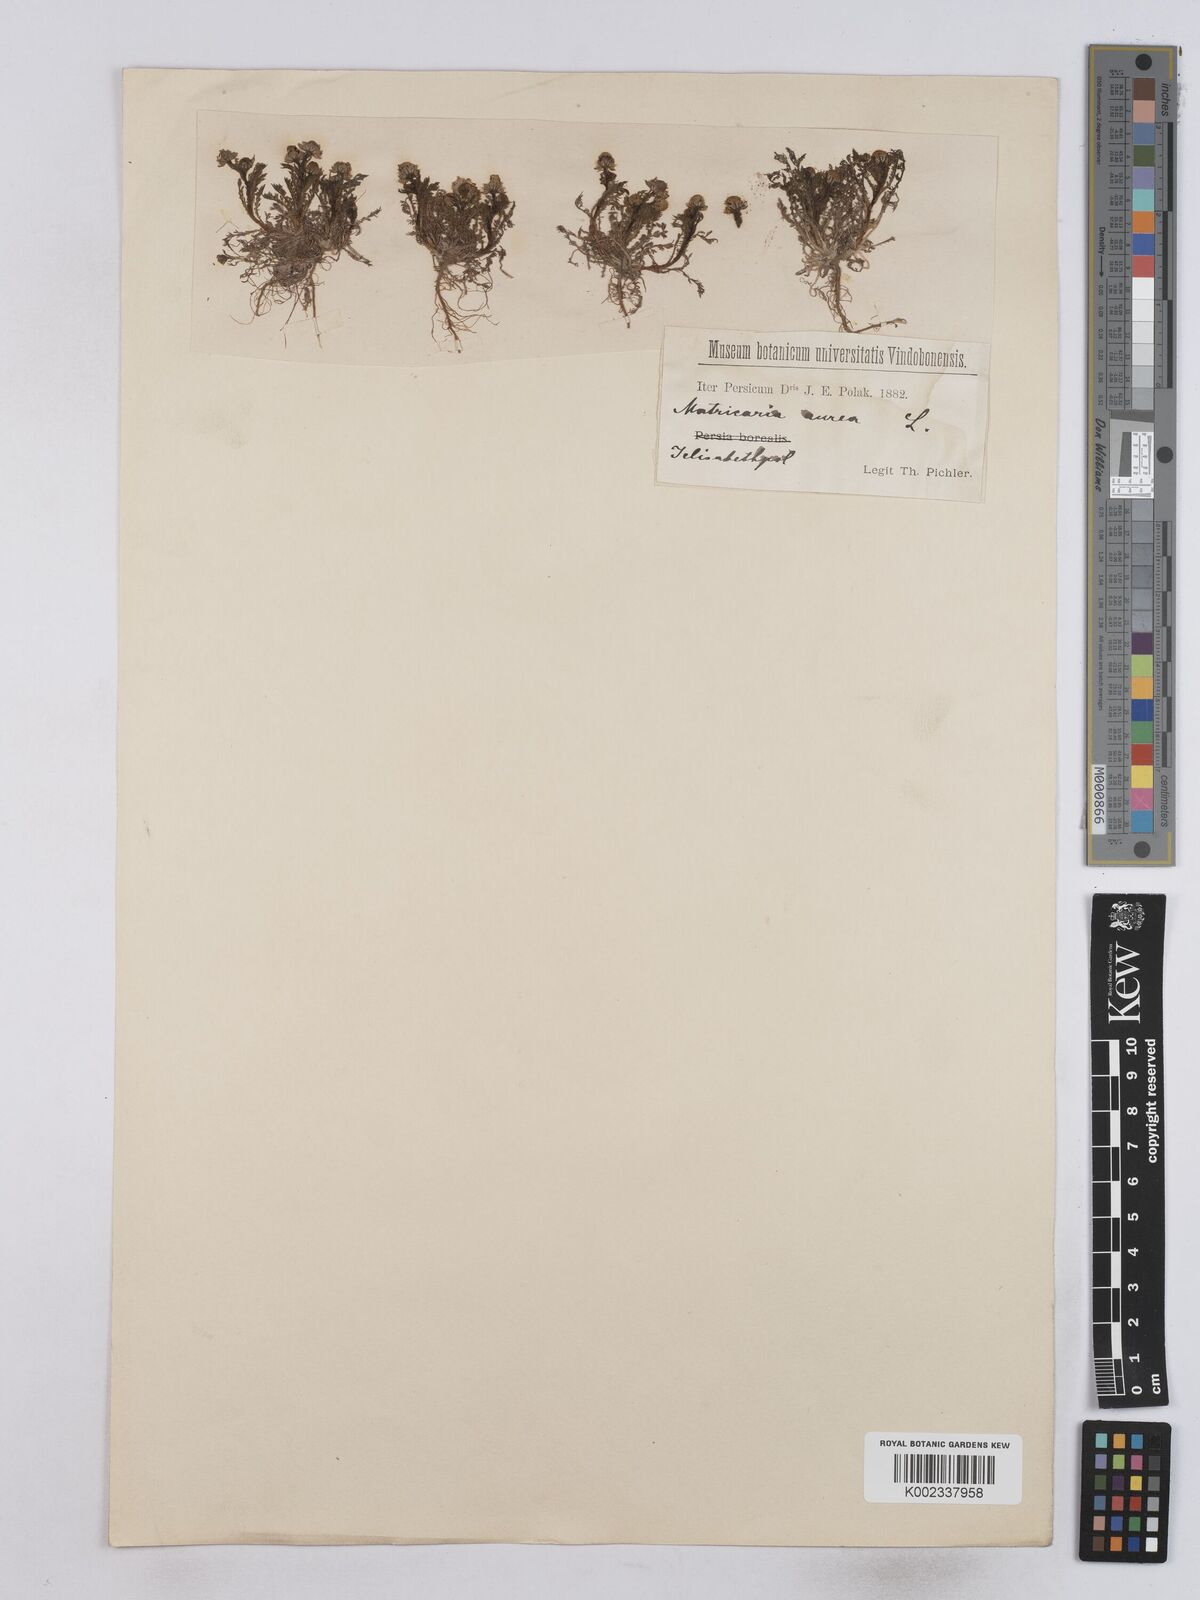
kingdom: Plantae
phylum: Tracheophyta
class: Magnoliopsida
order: Asterales
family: Asteraceae
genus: Matricaria
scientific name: Matricaria aurea
